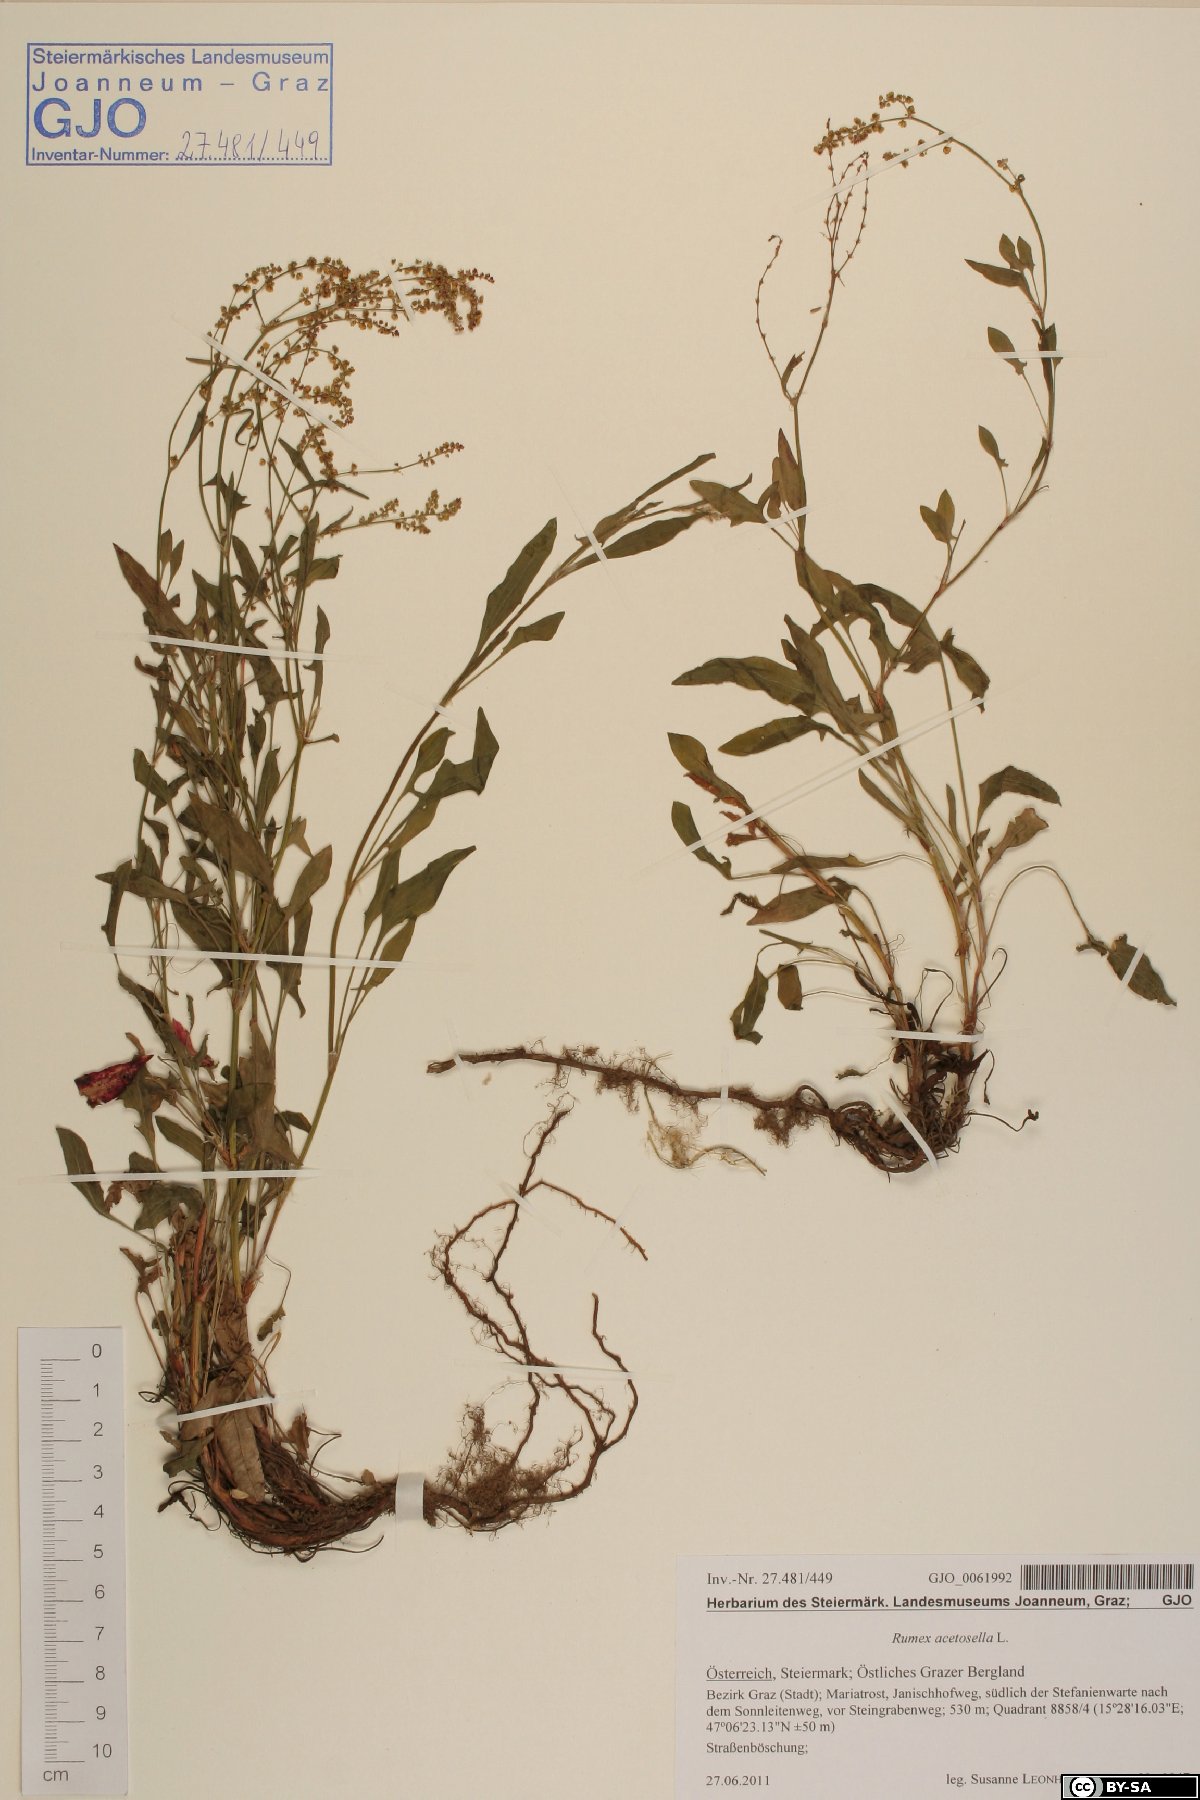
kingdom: Plantae
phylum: Tracheophyta
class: Magnoliopsida
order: Caryophyllales
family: Polygonaceae
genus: Rumex
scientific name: Rumex acetosella
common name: Common sheep sorrel
